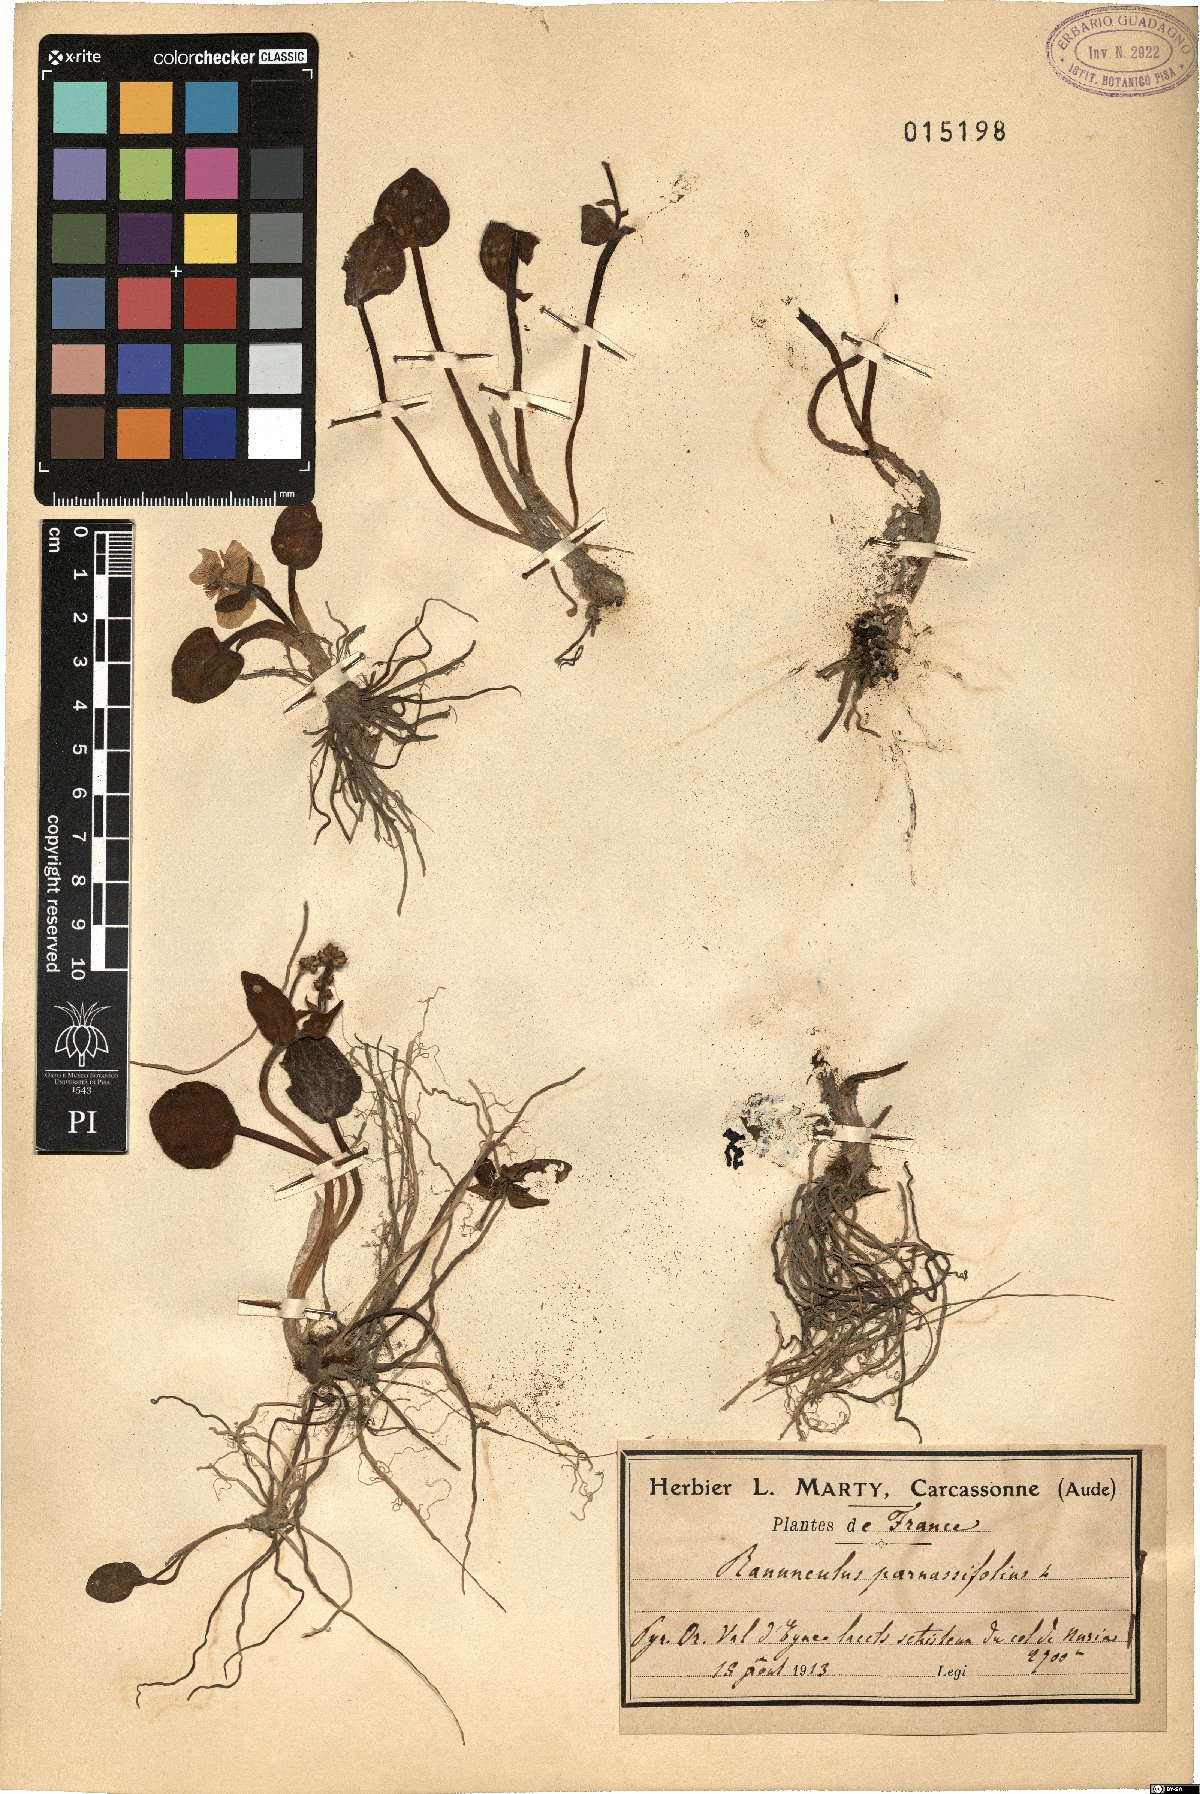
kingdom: Plantae
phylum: Tracheophyta
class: Magnoliopsida
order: Ranunculales
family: Ranunculaceae
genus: Ranunculus
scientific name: Ranunculus parnassiifolius
